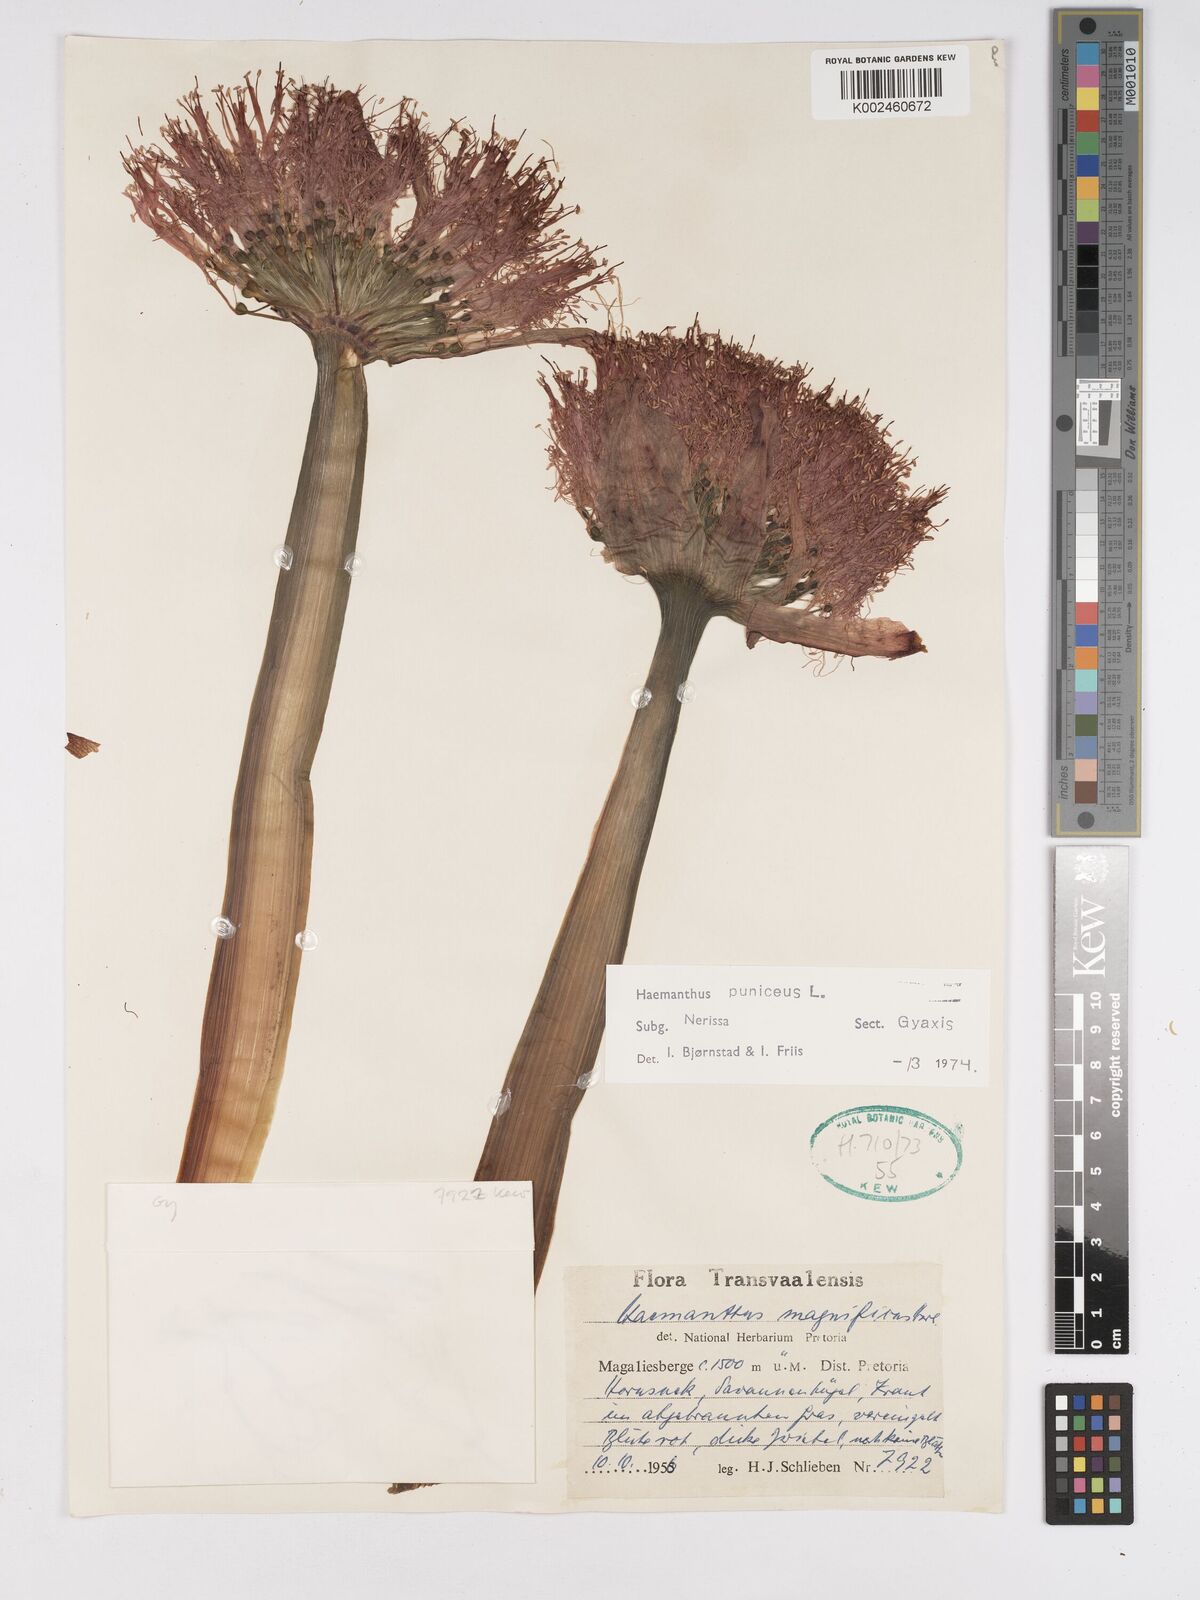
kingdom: Plantae
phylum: Tracheophyta
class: Liliopsida
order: Asparagales
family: Amaryllidaceae
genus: Scadoxus
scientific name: Scadoxus puniceus
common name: Royal-paintbrush
